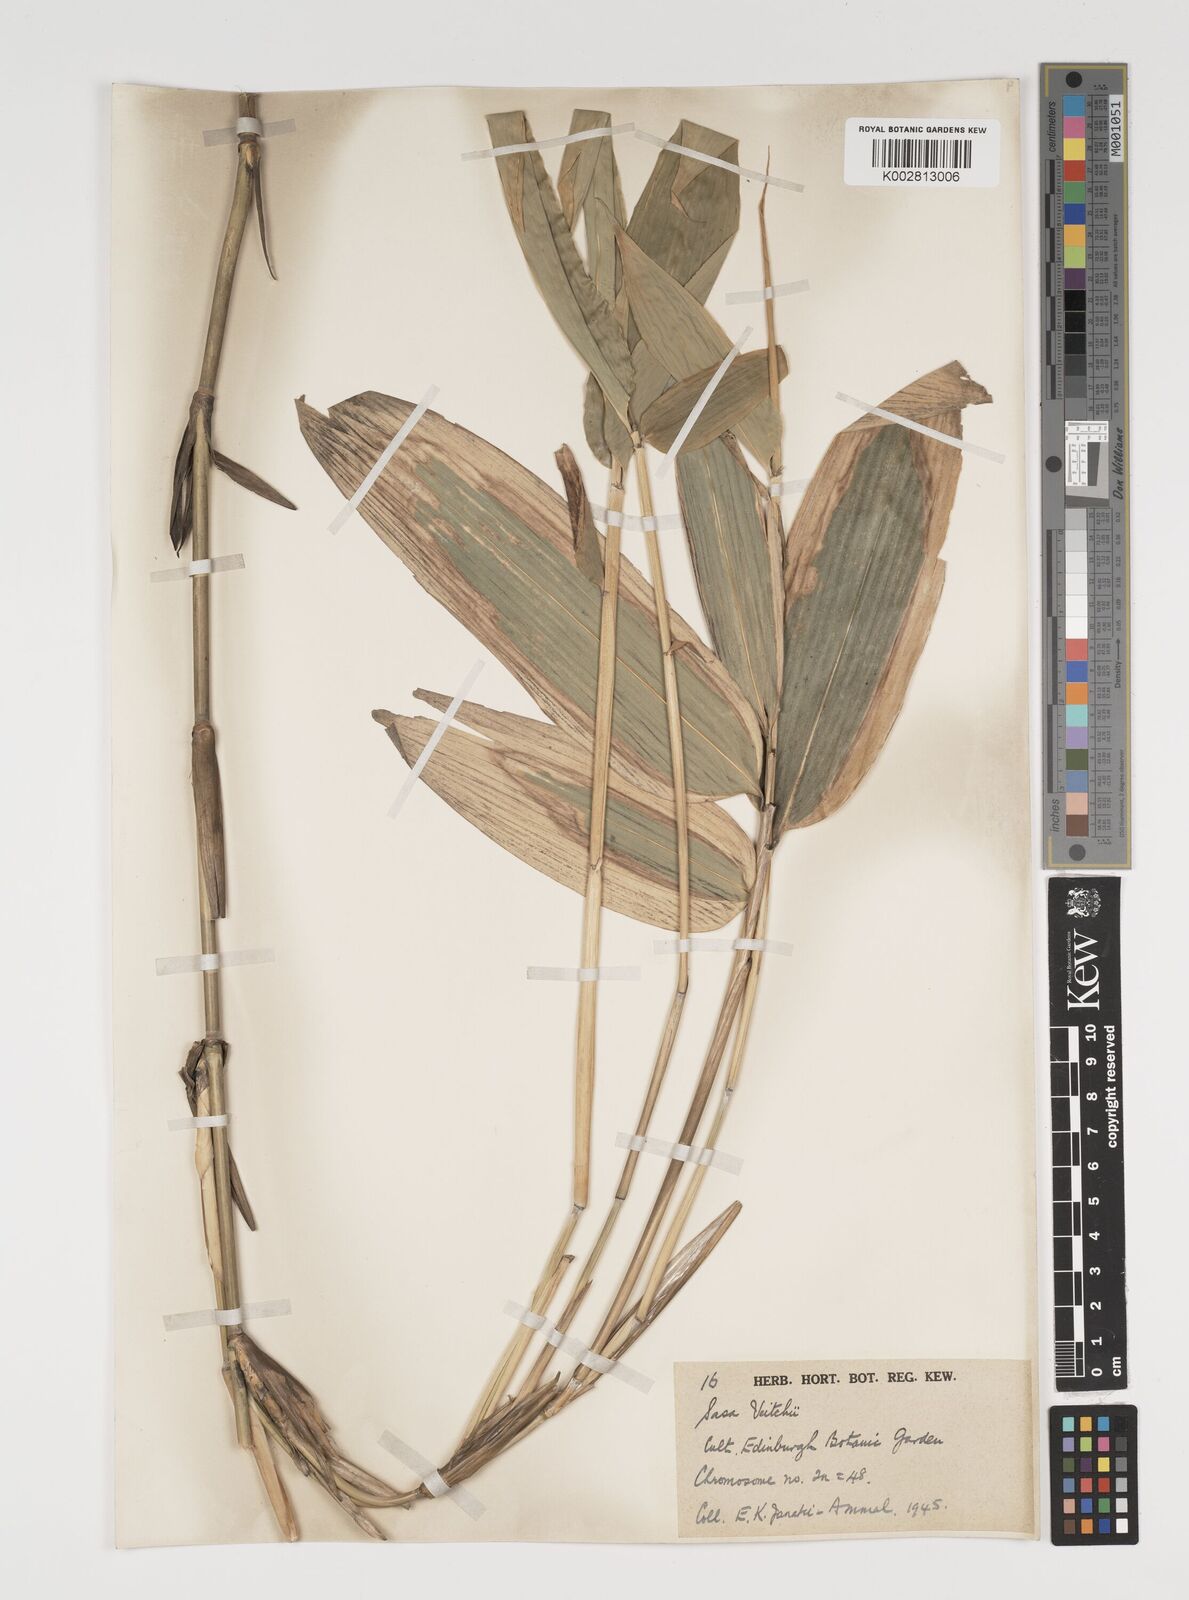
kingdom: Plantae
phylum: Tracheophyta
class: Liliopsida
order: Poales
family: Poaceae
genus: Sasa
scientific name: Sasa veitchii
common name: Veitch's bamboo
